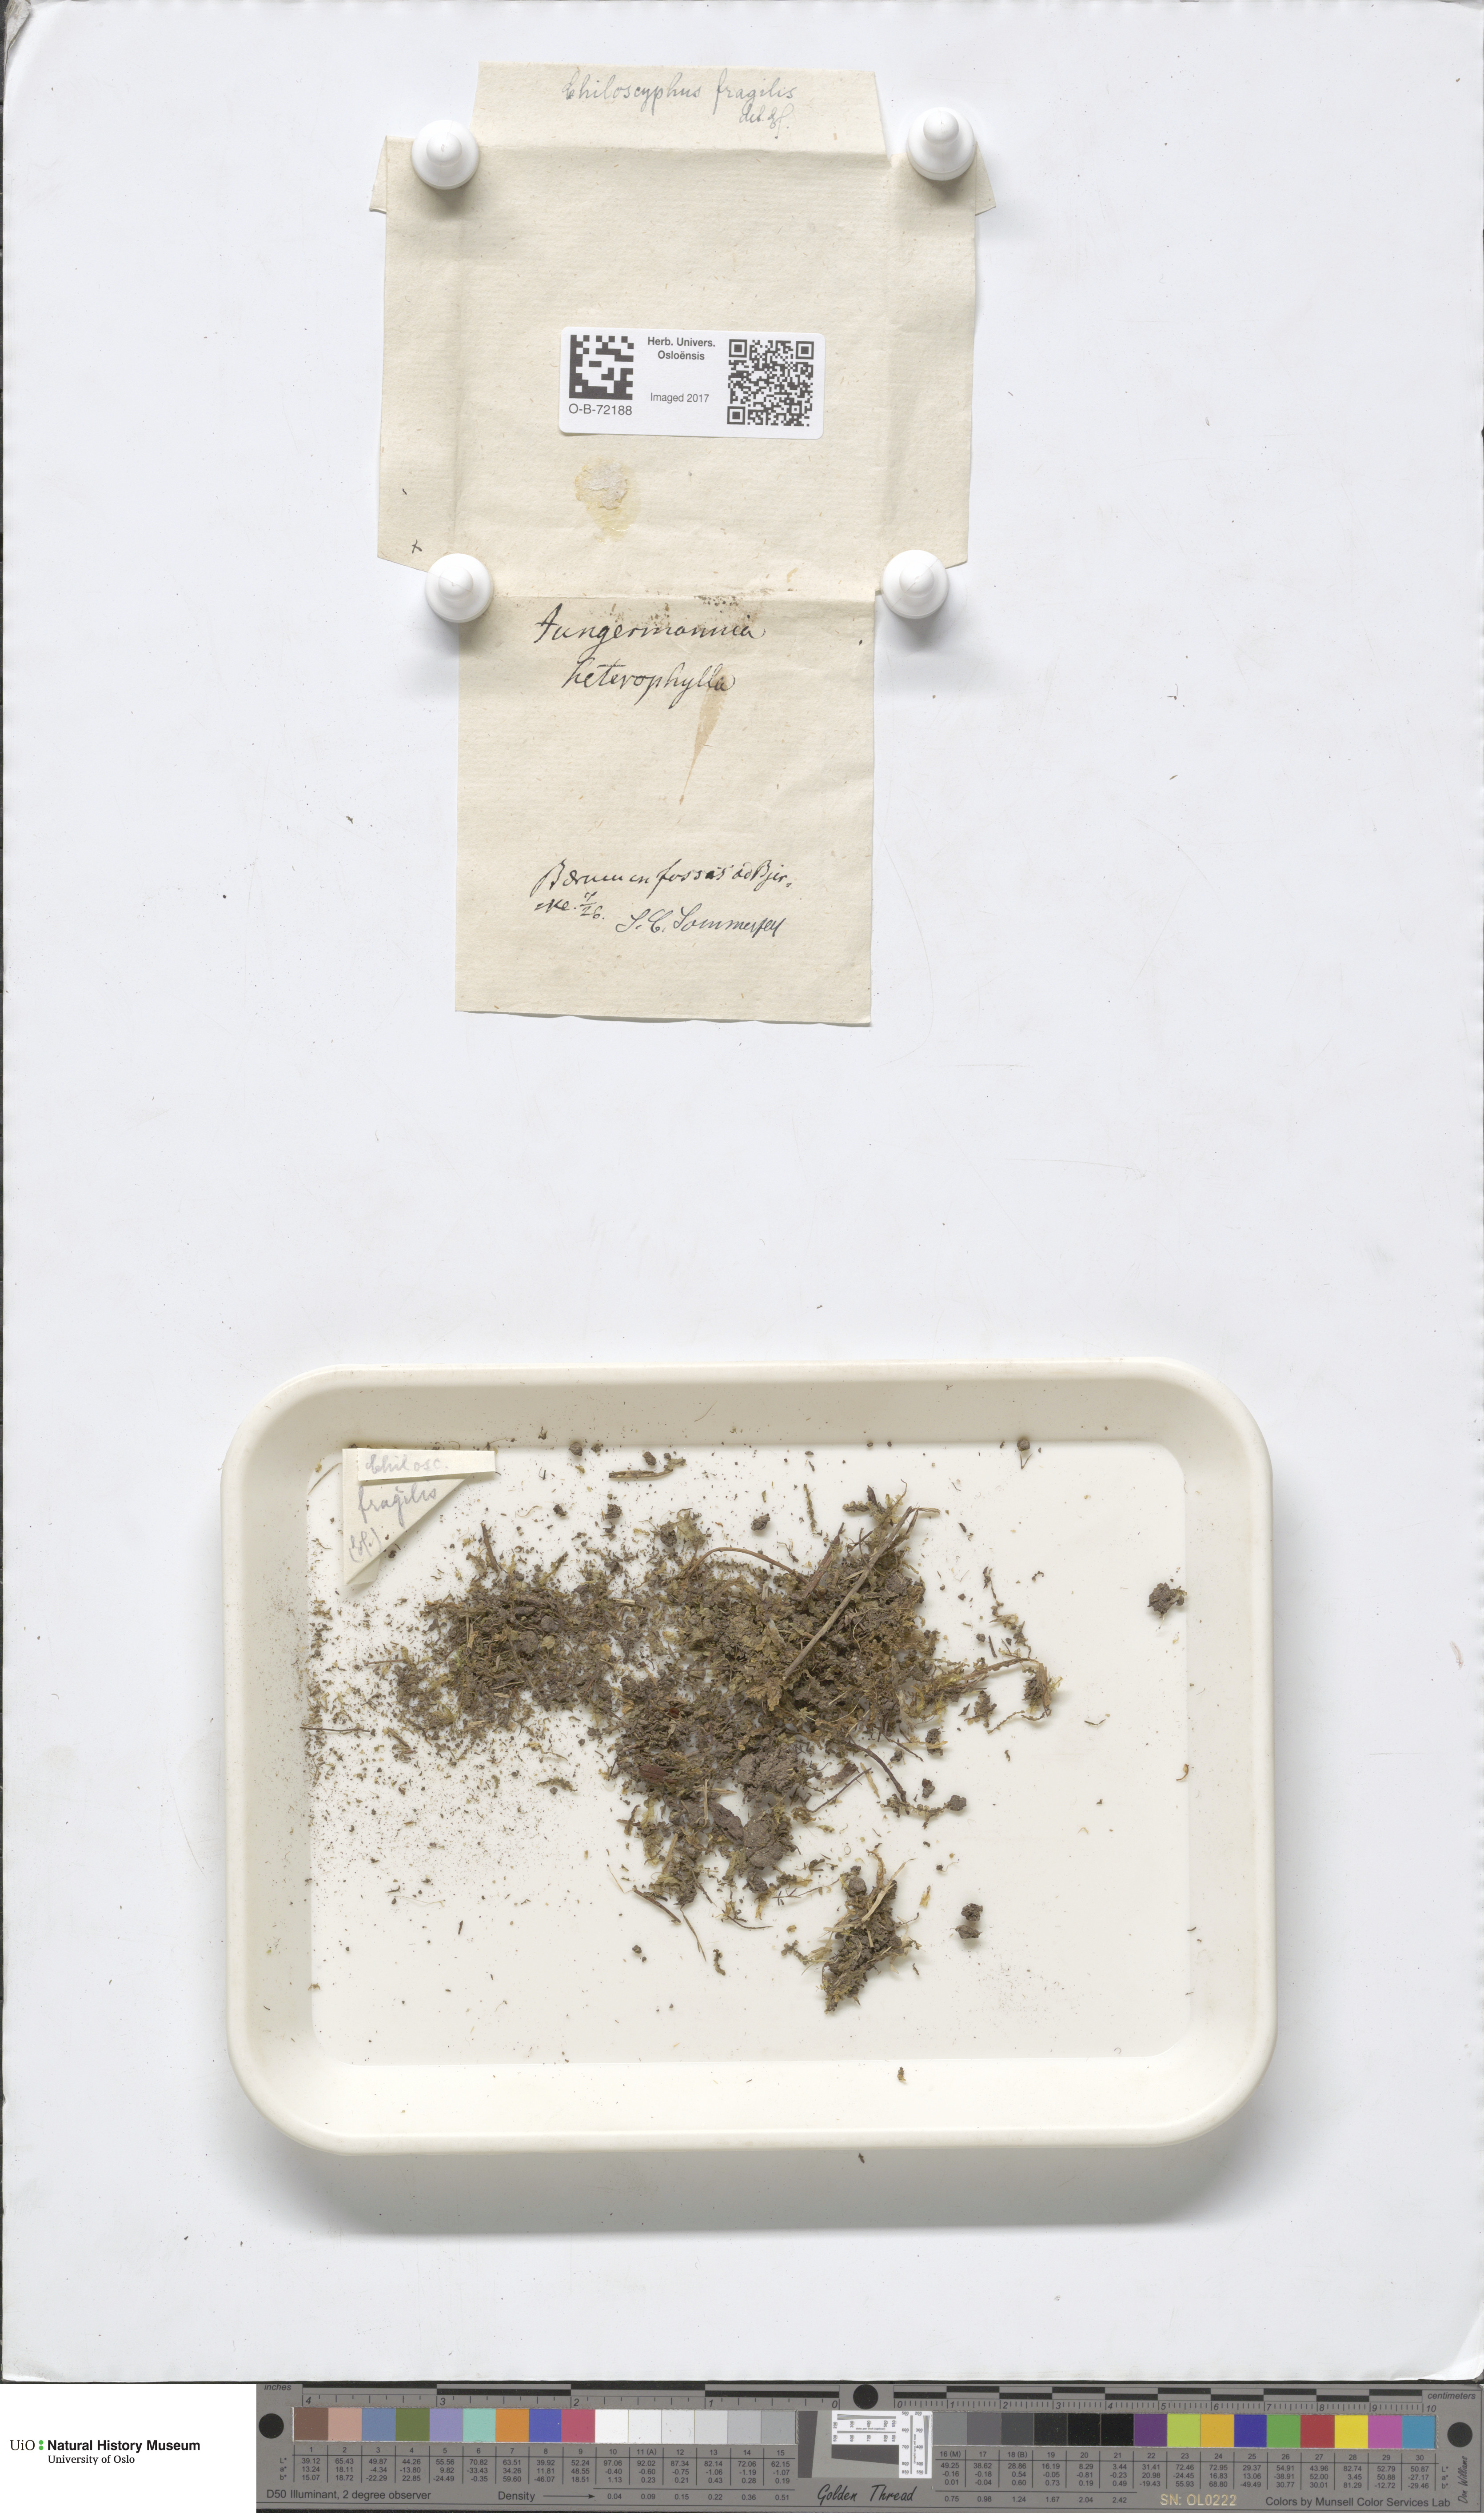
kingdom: Plantae
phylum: Marchantiophyta
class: Jungermanniopsida
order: Jungermanniales
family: Lophocoleaceae
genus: Chiloscyphus
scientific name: Chiloscyphus pallescens
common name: St winifrid's other moss
